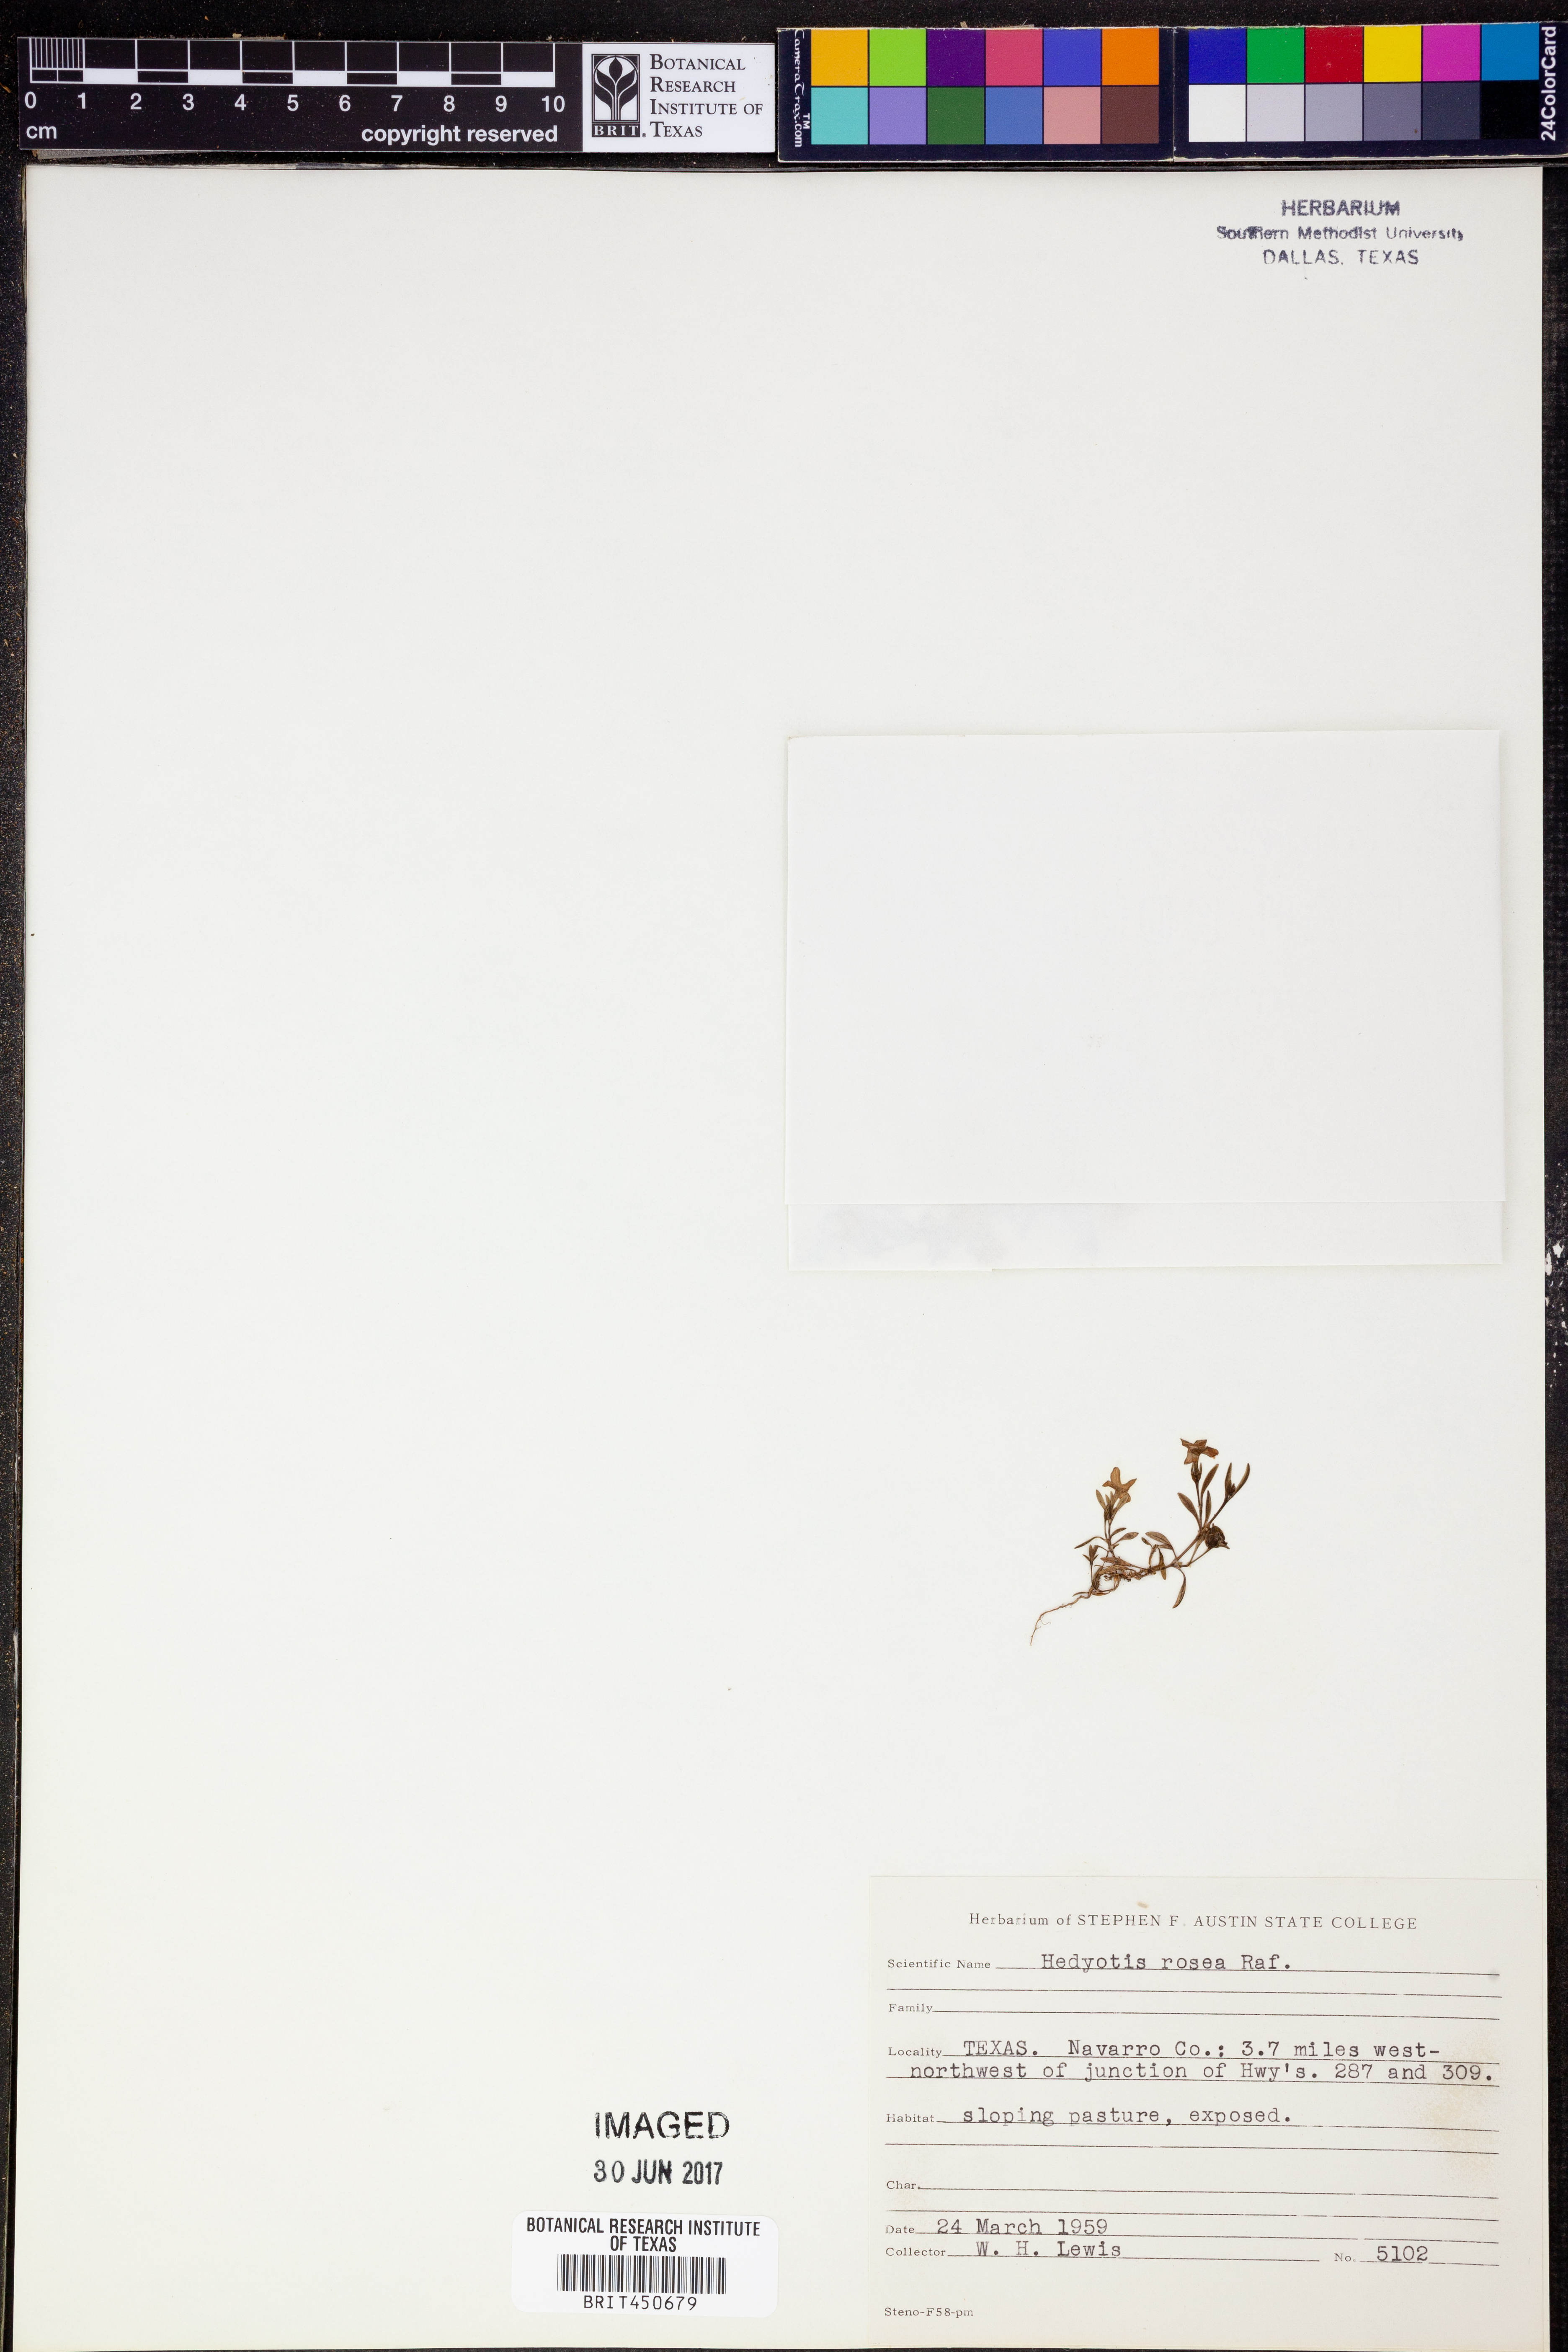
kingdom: Plantae
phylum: Tracheophyta
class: Magnoliopsida
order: Gentianales
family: Rubiaceae
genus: Houstonia
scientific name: Houstonia rosea
